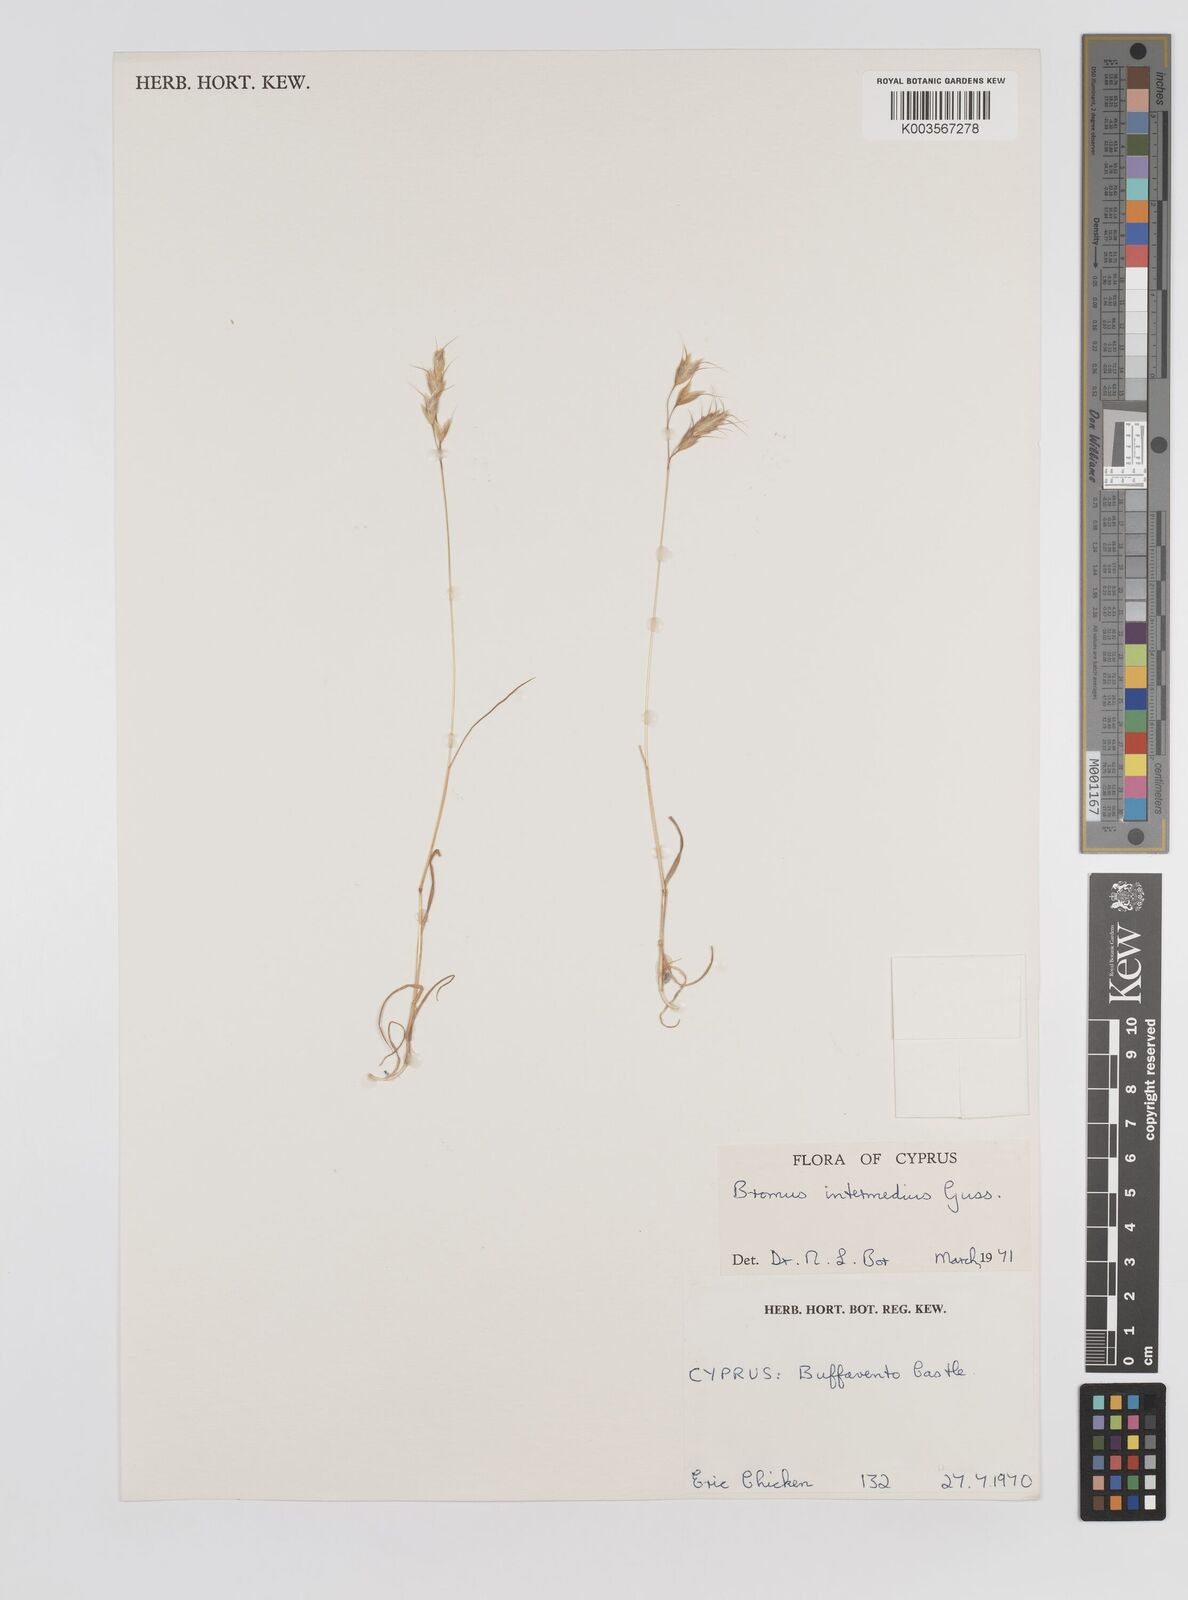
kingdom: Plantae
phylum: Tracheophyta
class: Liliopsida
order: Poales
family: Poaceae
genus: Bromus
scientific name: Bromus intermedius
